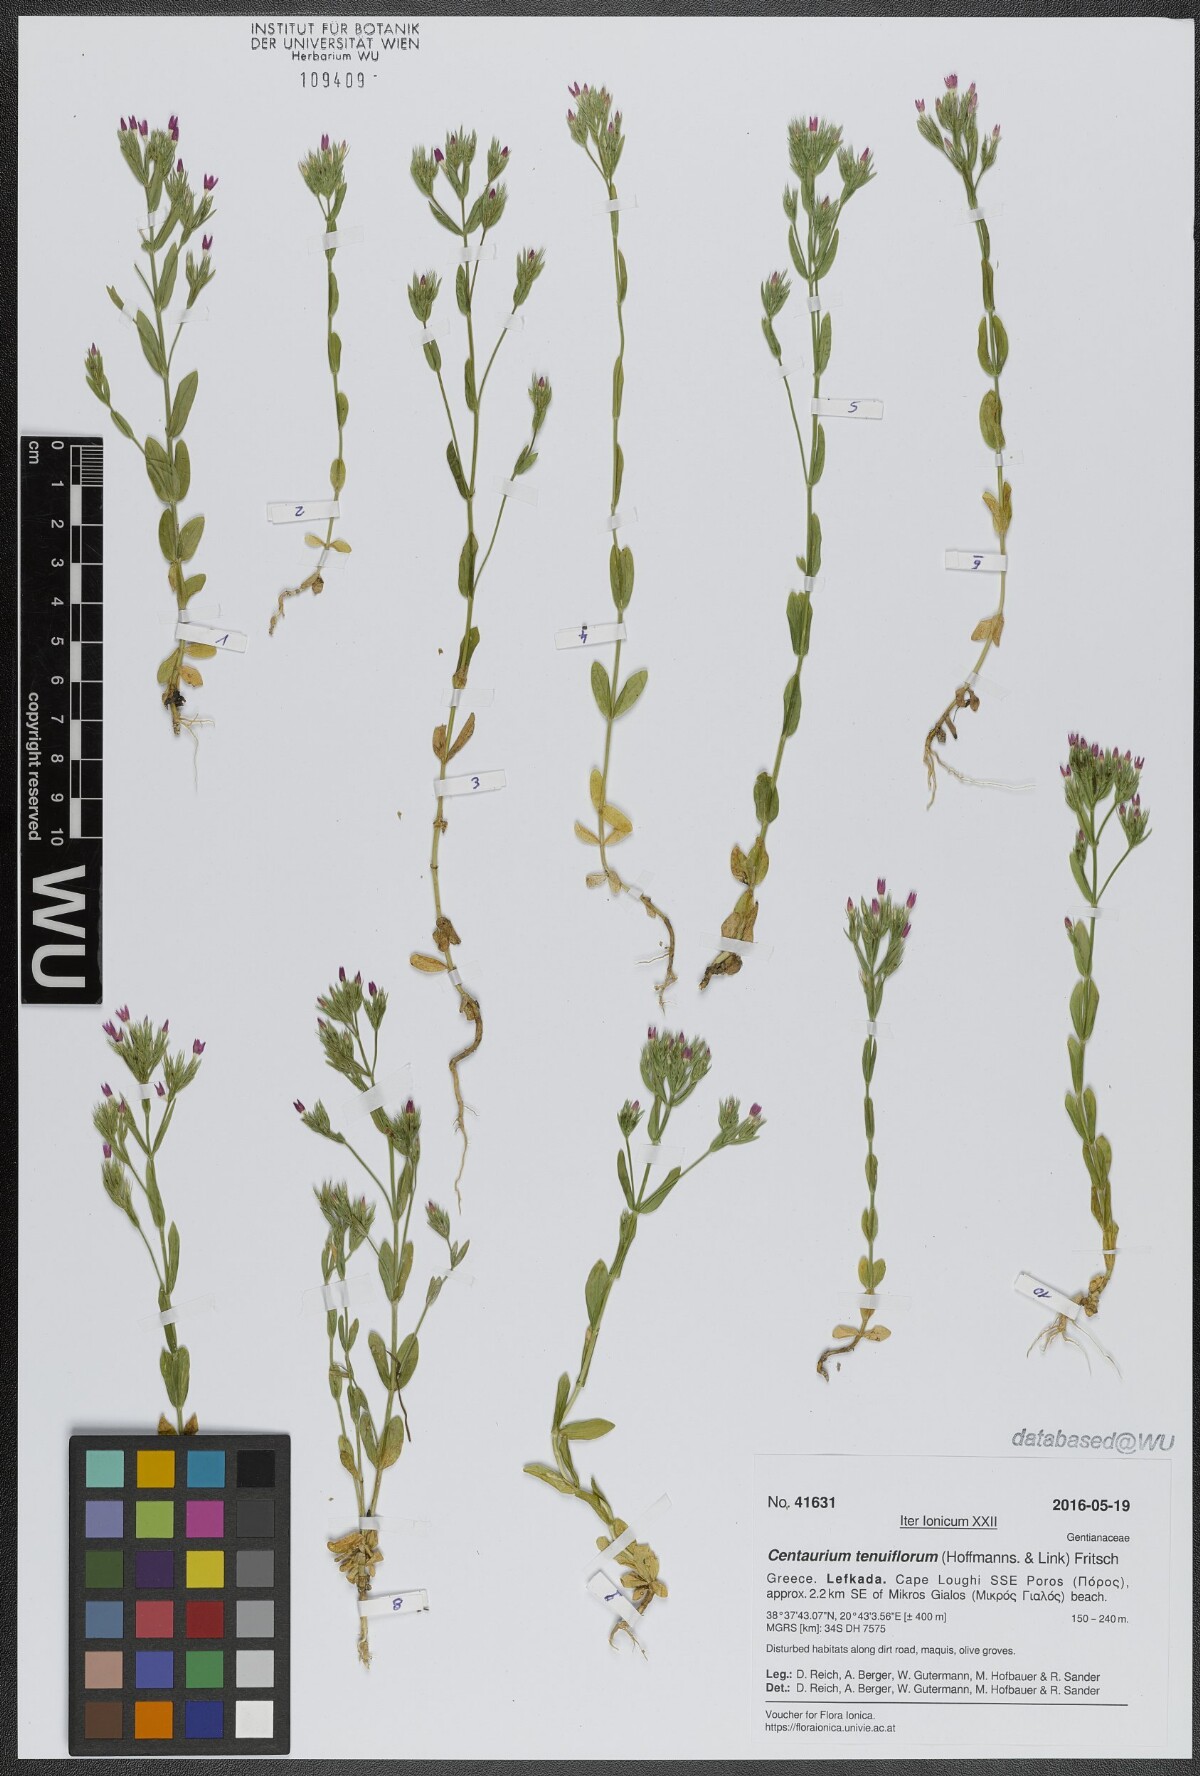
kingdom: Plantae
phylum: Tracheophyta
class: Magnoliopsida
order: Gentianales
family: Gentianaceae
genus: Centaurium
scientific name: Centaurium tenuiflorum
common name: Slender centaury
